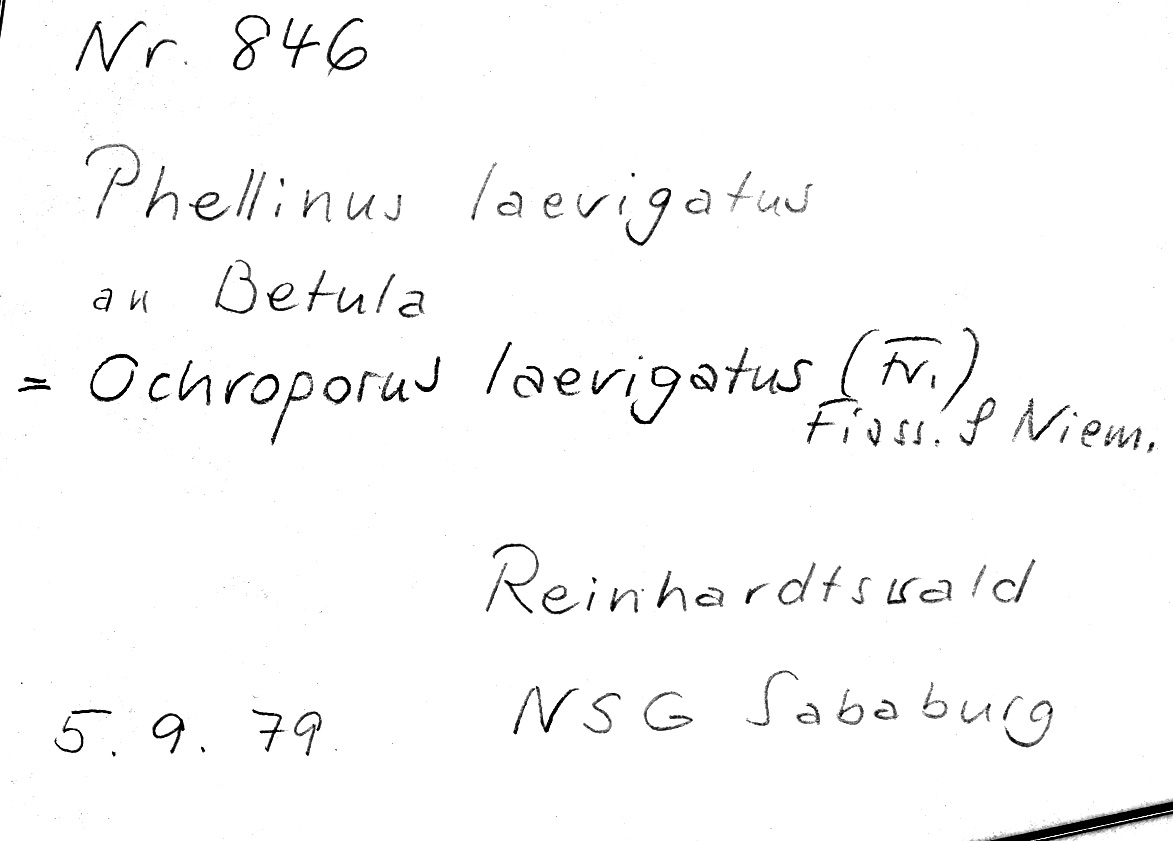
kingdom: Plantae
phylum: Tracheophyta
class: Magnoliopsida
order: Fagales
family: Betulaceae
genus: Betula
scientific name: Betula
